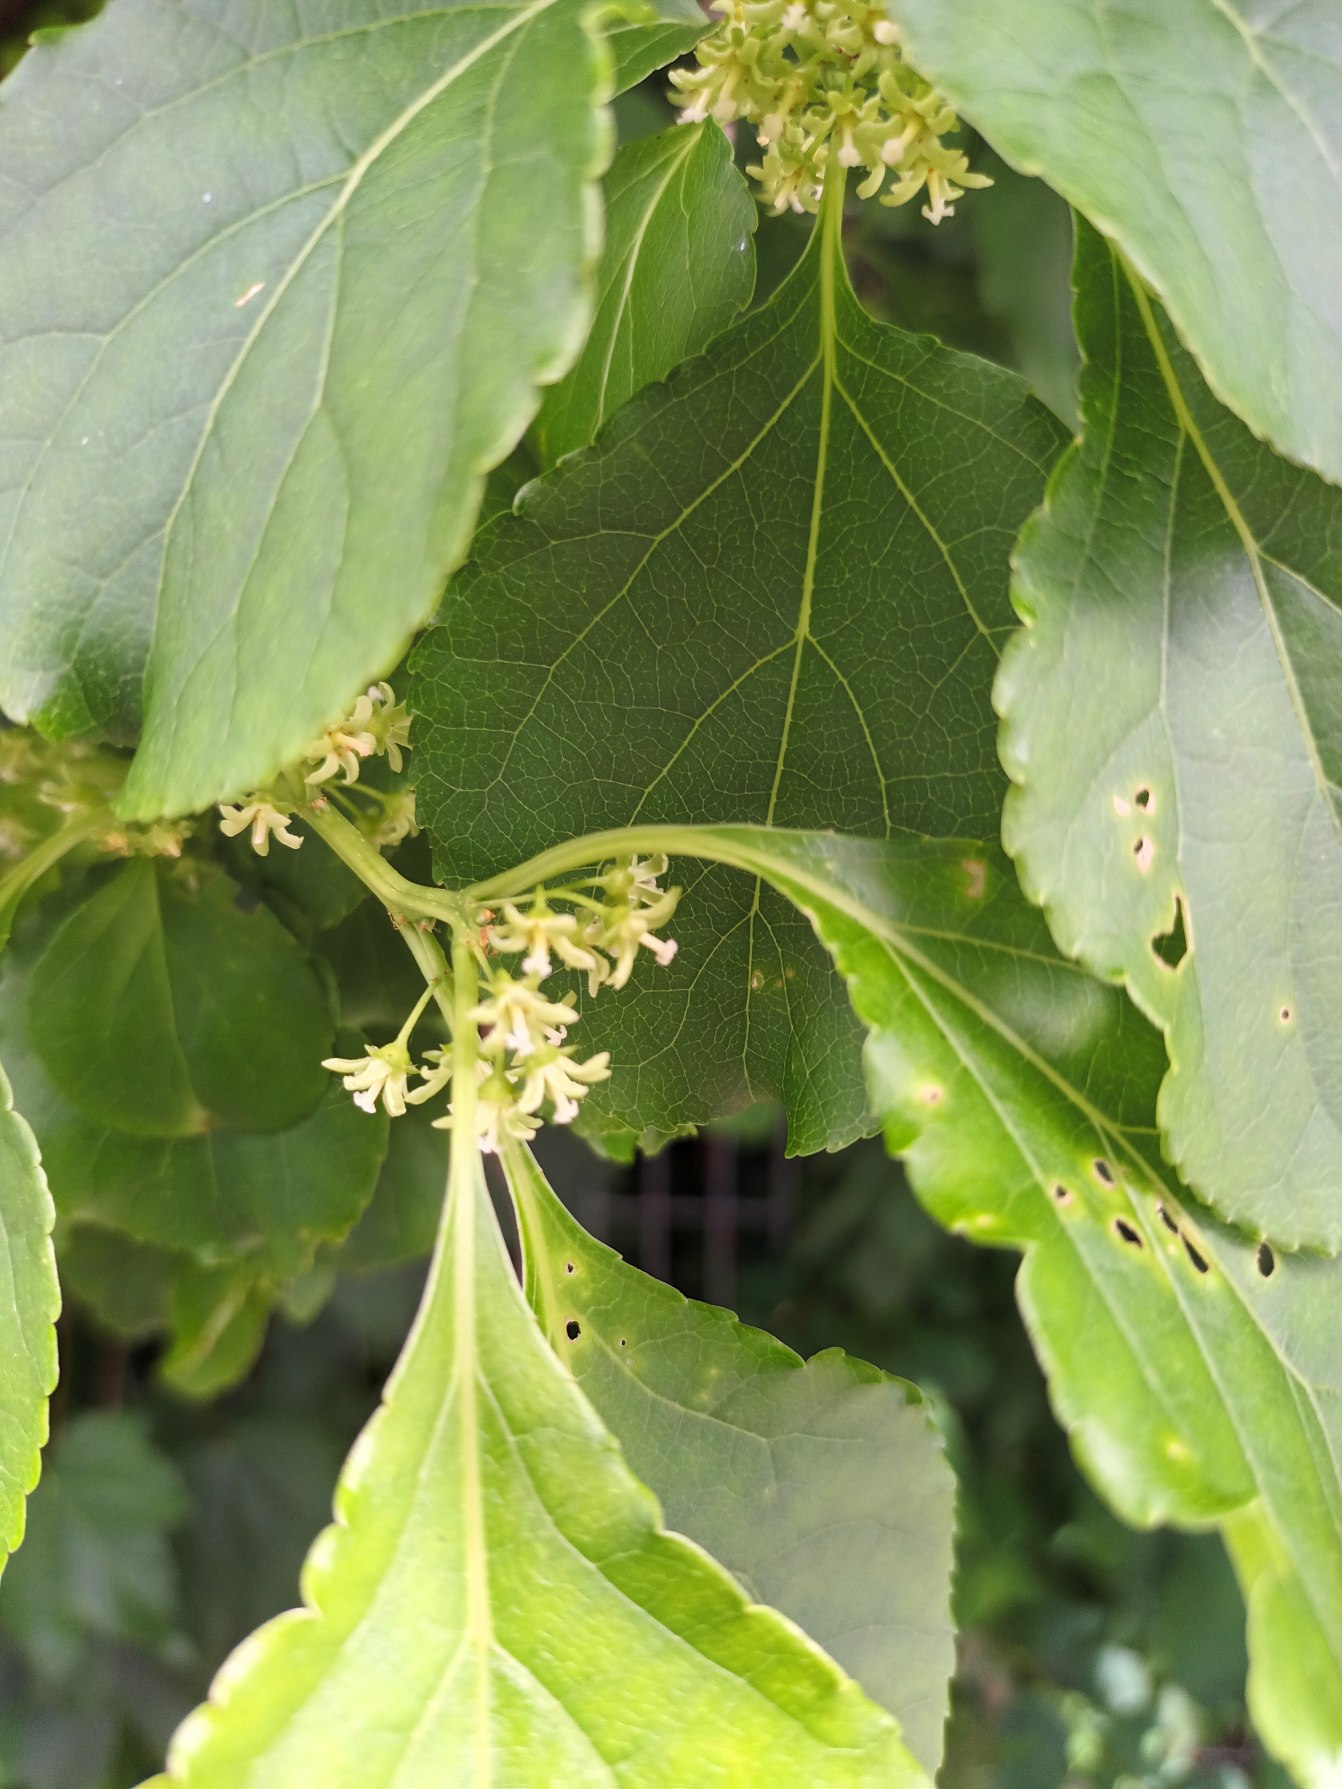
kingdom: Plantae
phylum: Tracheophyta
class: Magnoliopsida
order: Celastrales
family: Celastraceae
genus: Celastrus
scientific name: Celastrus orbiculatus
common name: Træmorder
